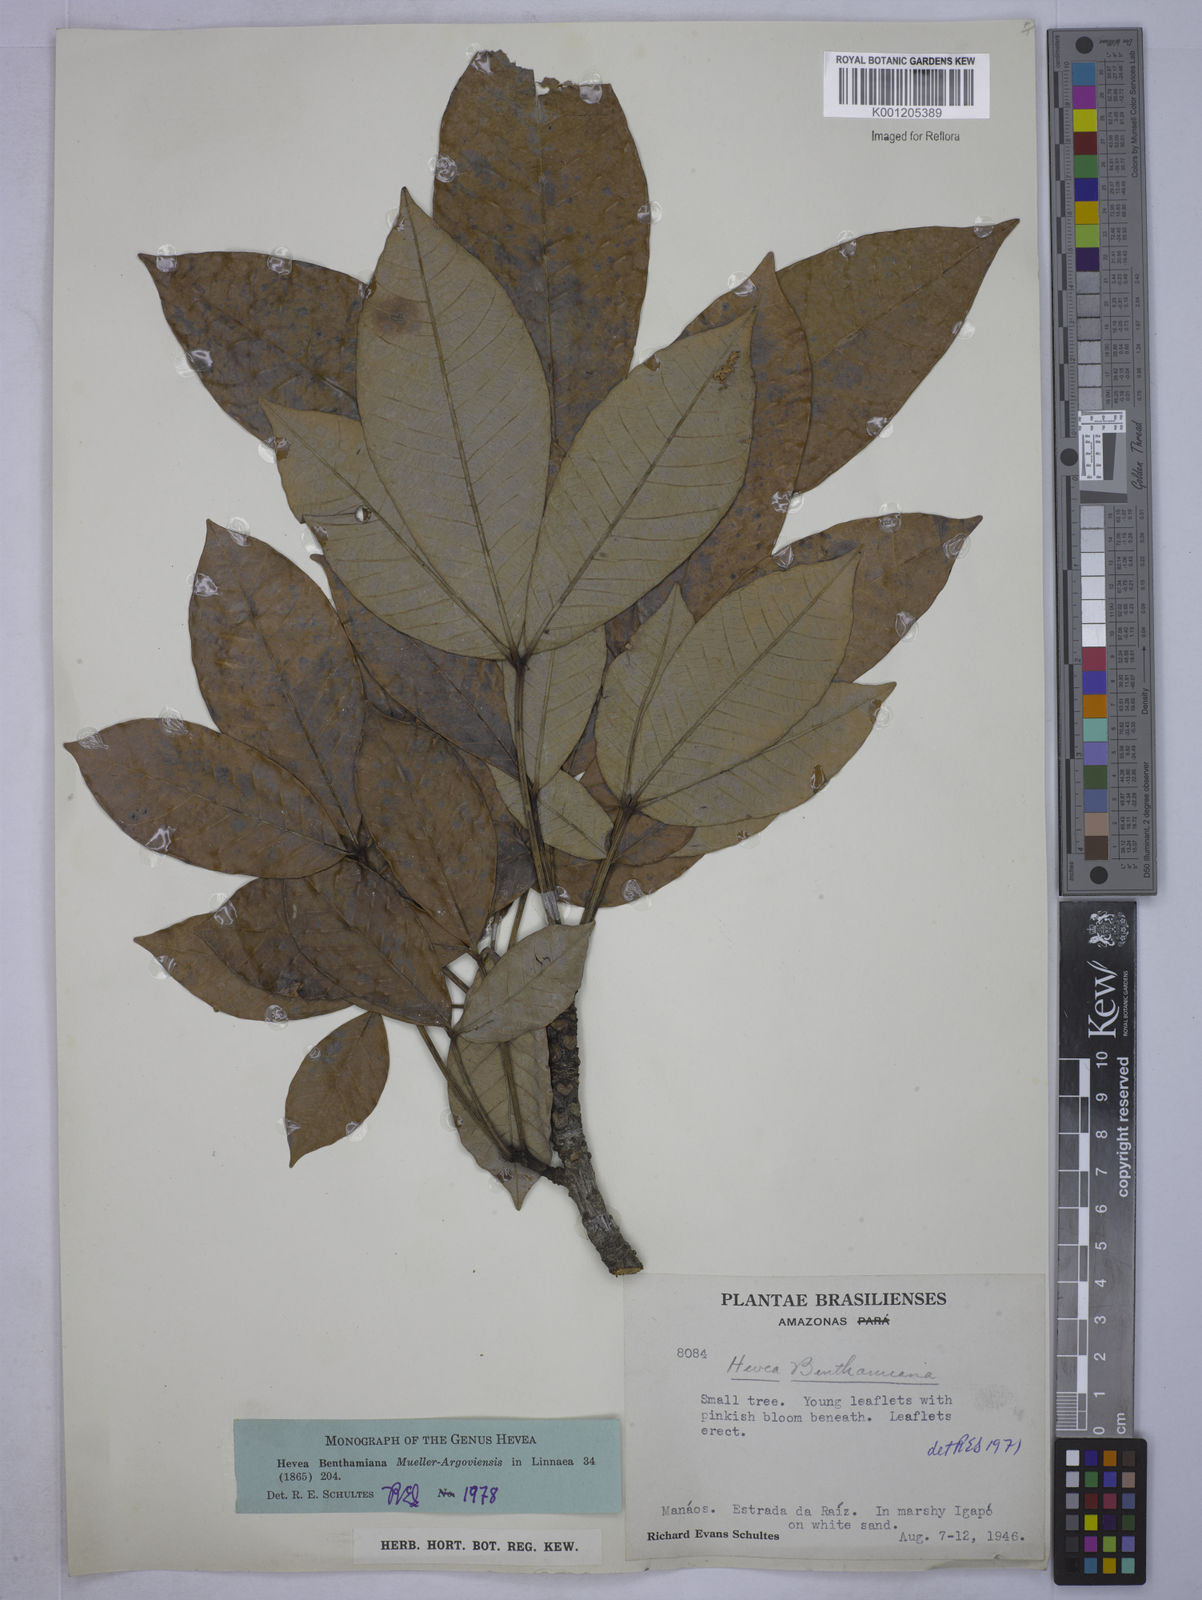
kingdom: Plantae
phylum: Tracheophyta
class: Magnoliopsida
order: Malpighiales
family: Euphorbiaceae
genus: Hevea
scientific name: Hevea
